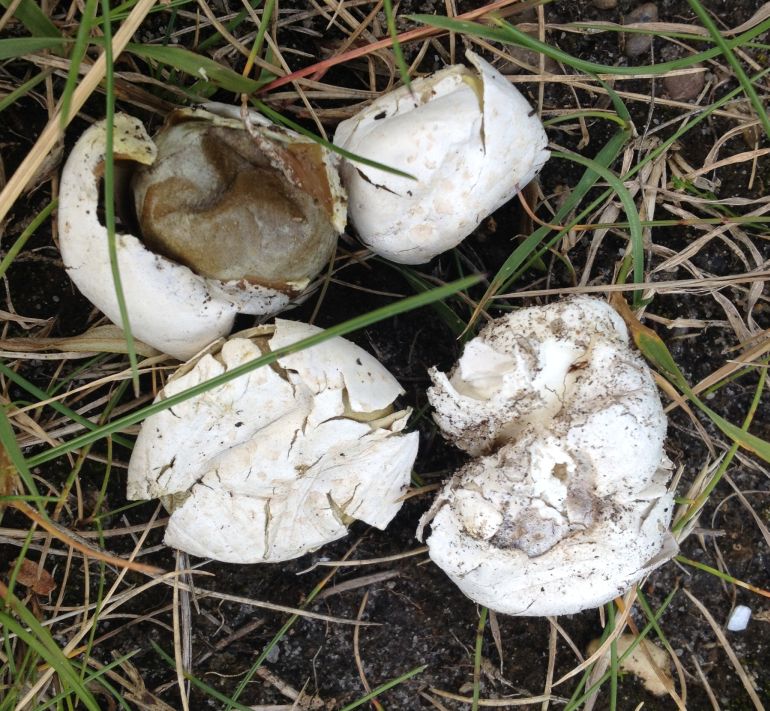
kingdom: Fungi
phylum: Basidiomycota
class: Agaricomycetes
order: Agaricales
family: Lycoperdaceae
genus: Bovista
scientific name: Bovista plumbea
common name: blygrå bovist
